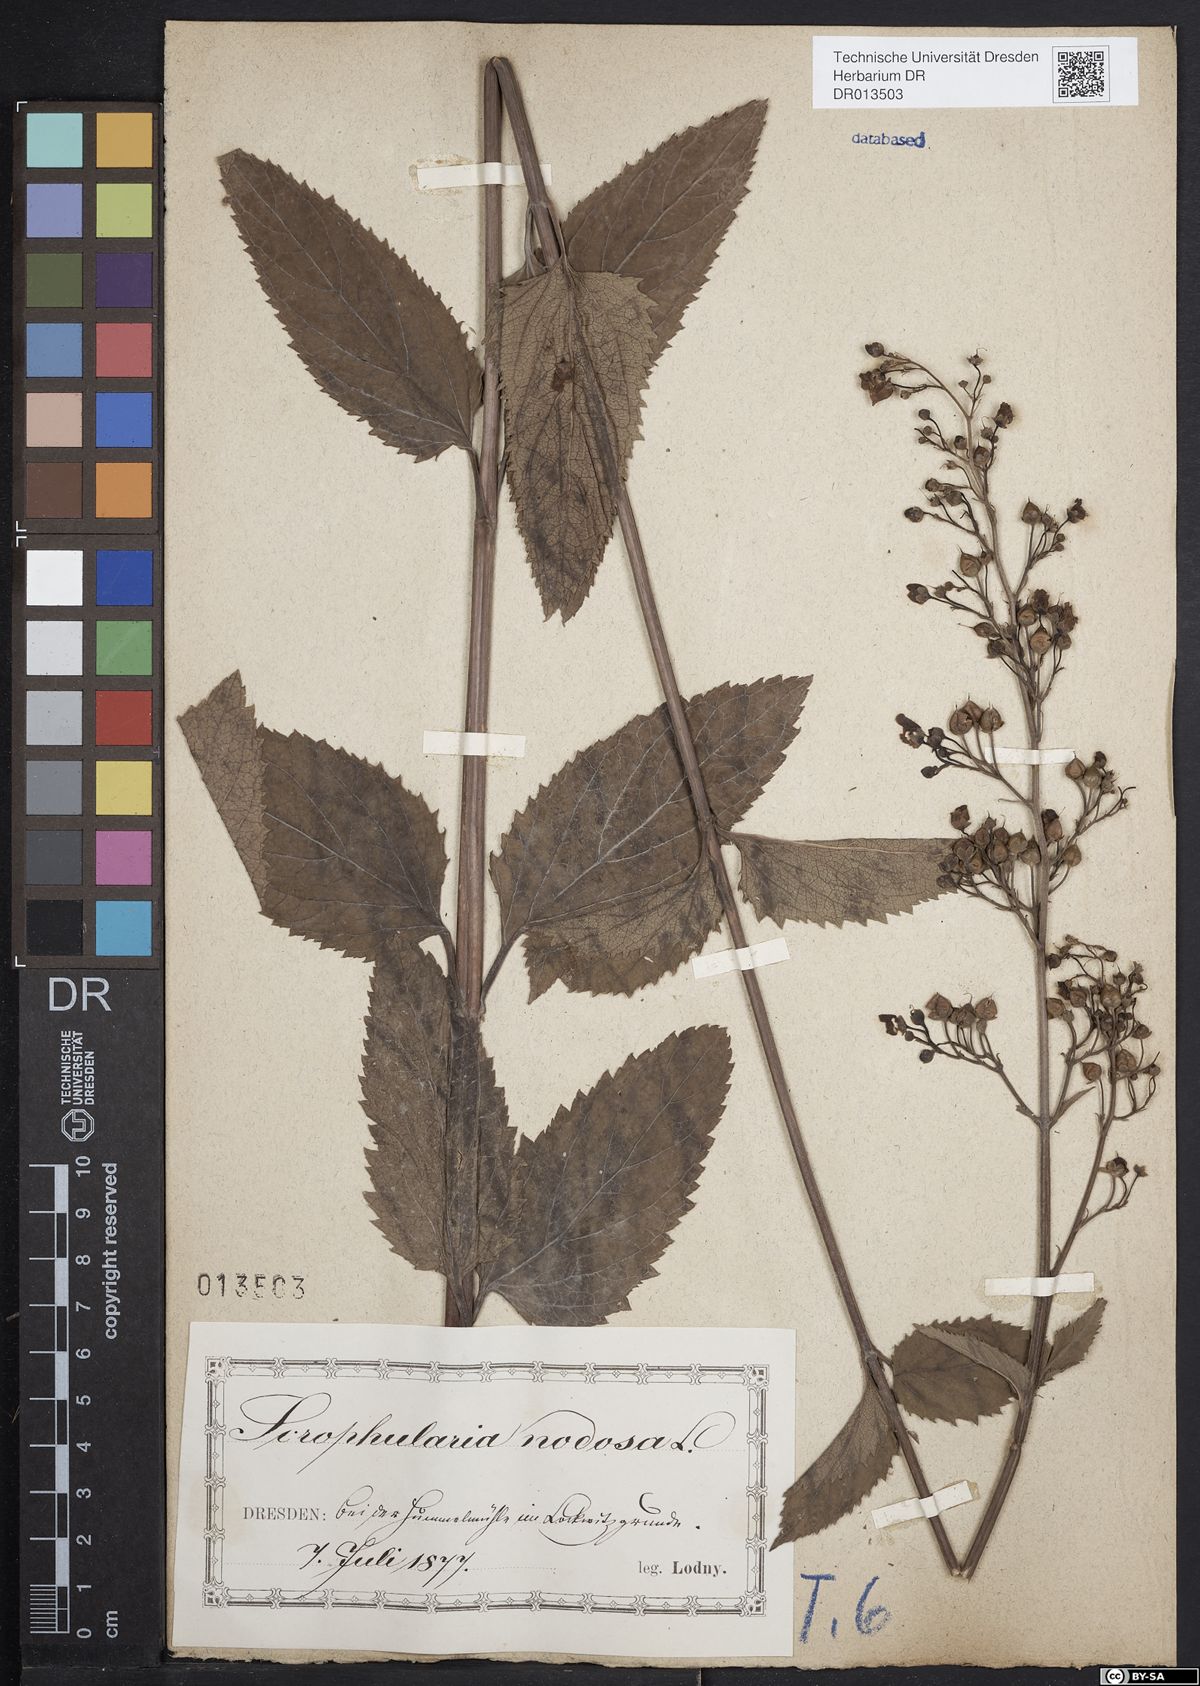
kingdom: Plantae
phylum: Tracheophyta
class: Magnoliopsida
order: Lamiales
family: Scrophulariaceae
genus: Scrophularia
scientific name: Scrophularia nodosa
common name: Common figwort
